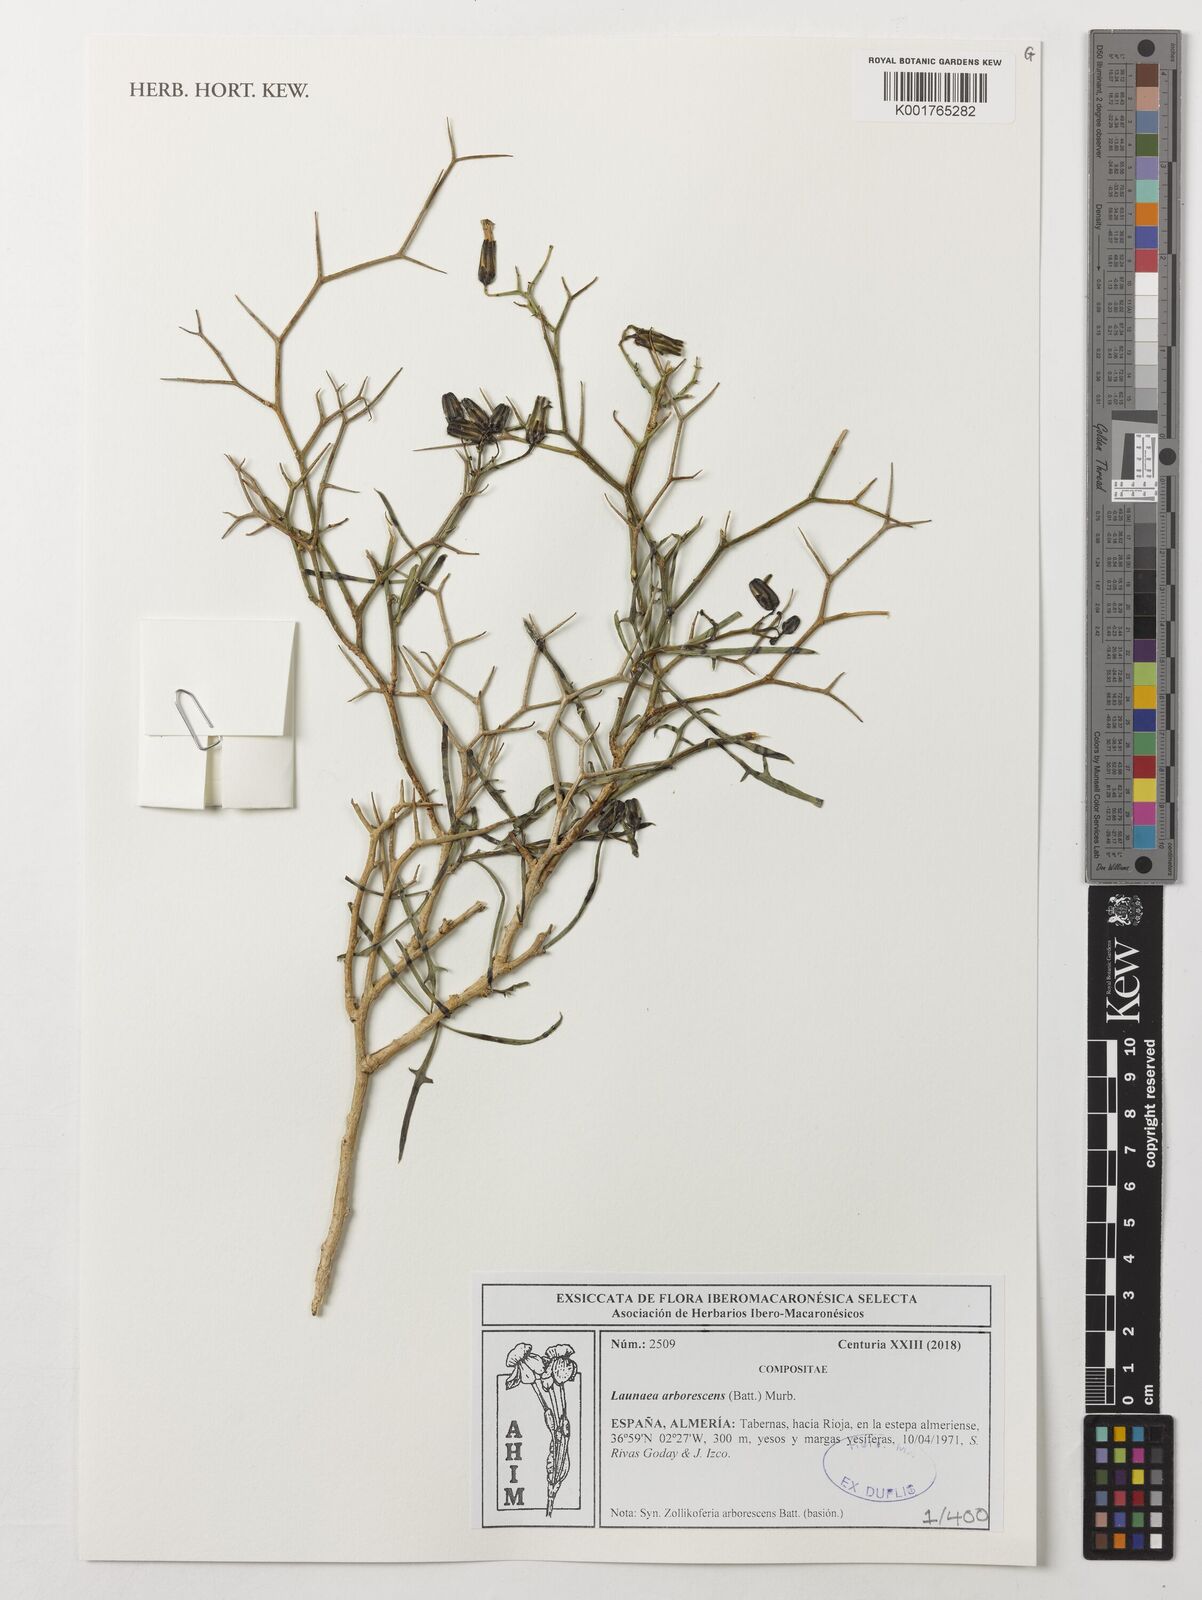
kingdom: Plantae
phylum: Tracheophyta
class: Magnoliopsida
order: Asterales
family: Asteraceae
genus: Launaea
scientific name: Launaea arborescens
